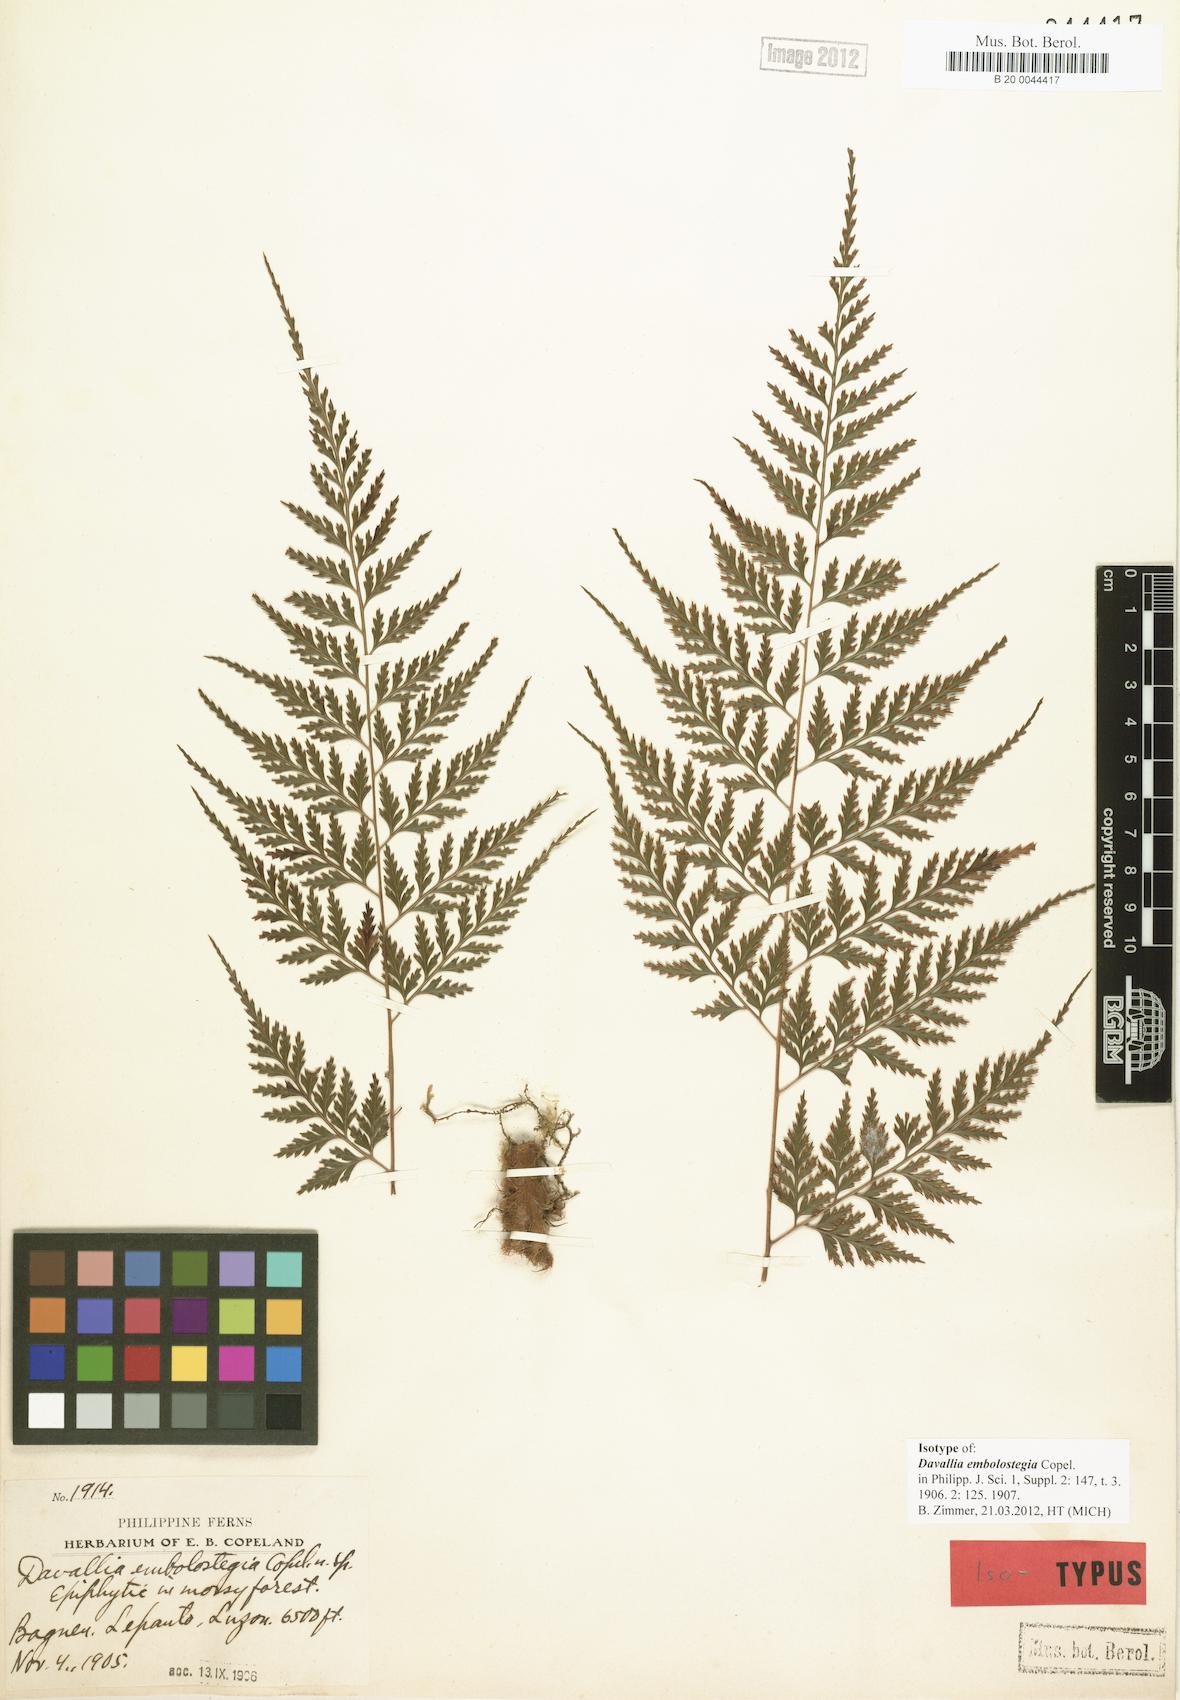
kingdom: Plantae
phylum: Tracheophyta
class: Polypodiopsida
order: Polypodiales
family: Davalliaceae
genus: Davallia
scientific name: Davallia embolostegia
